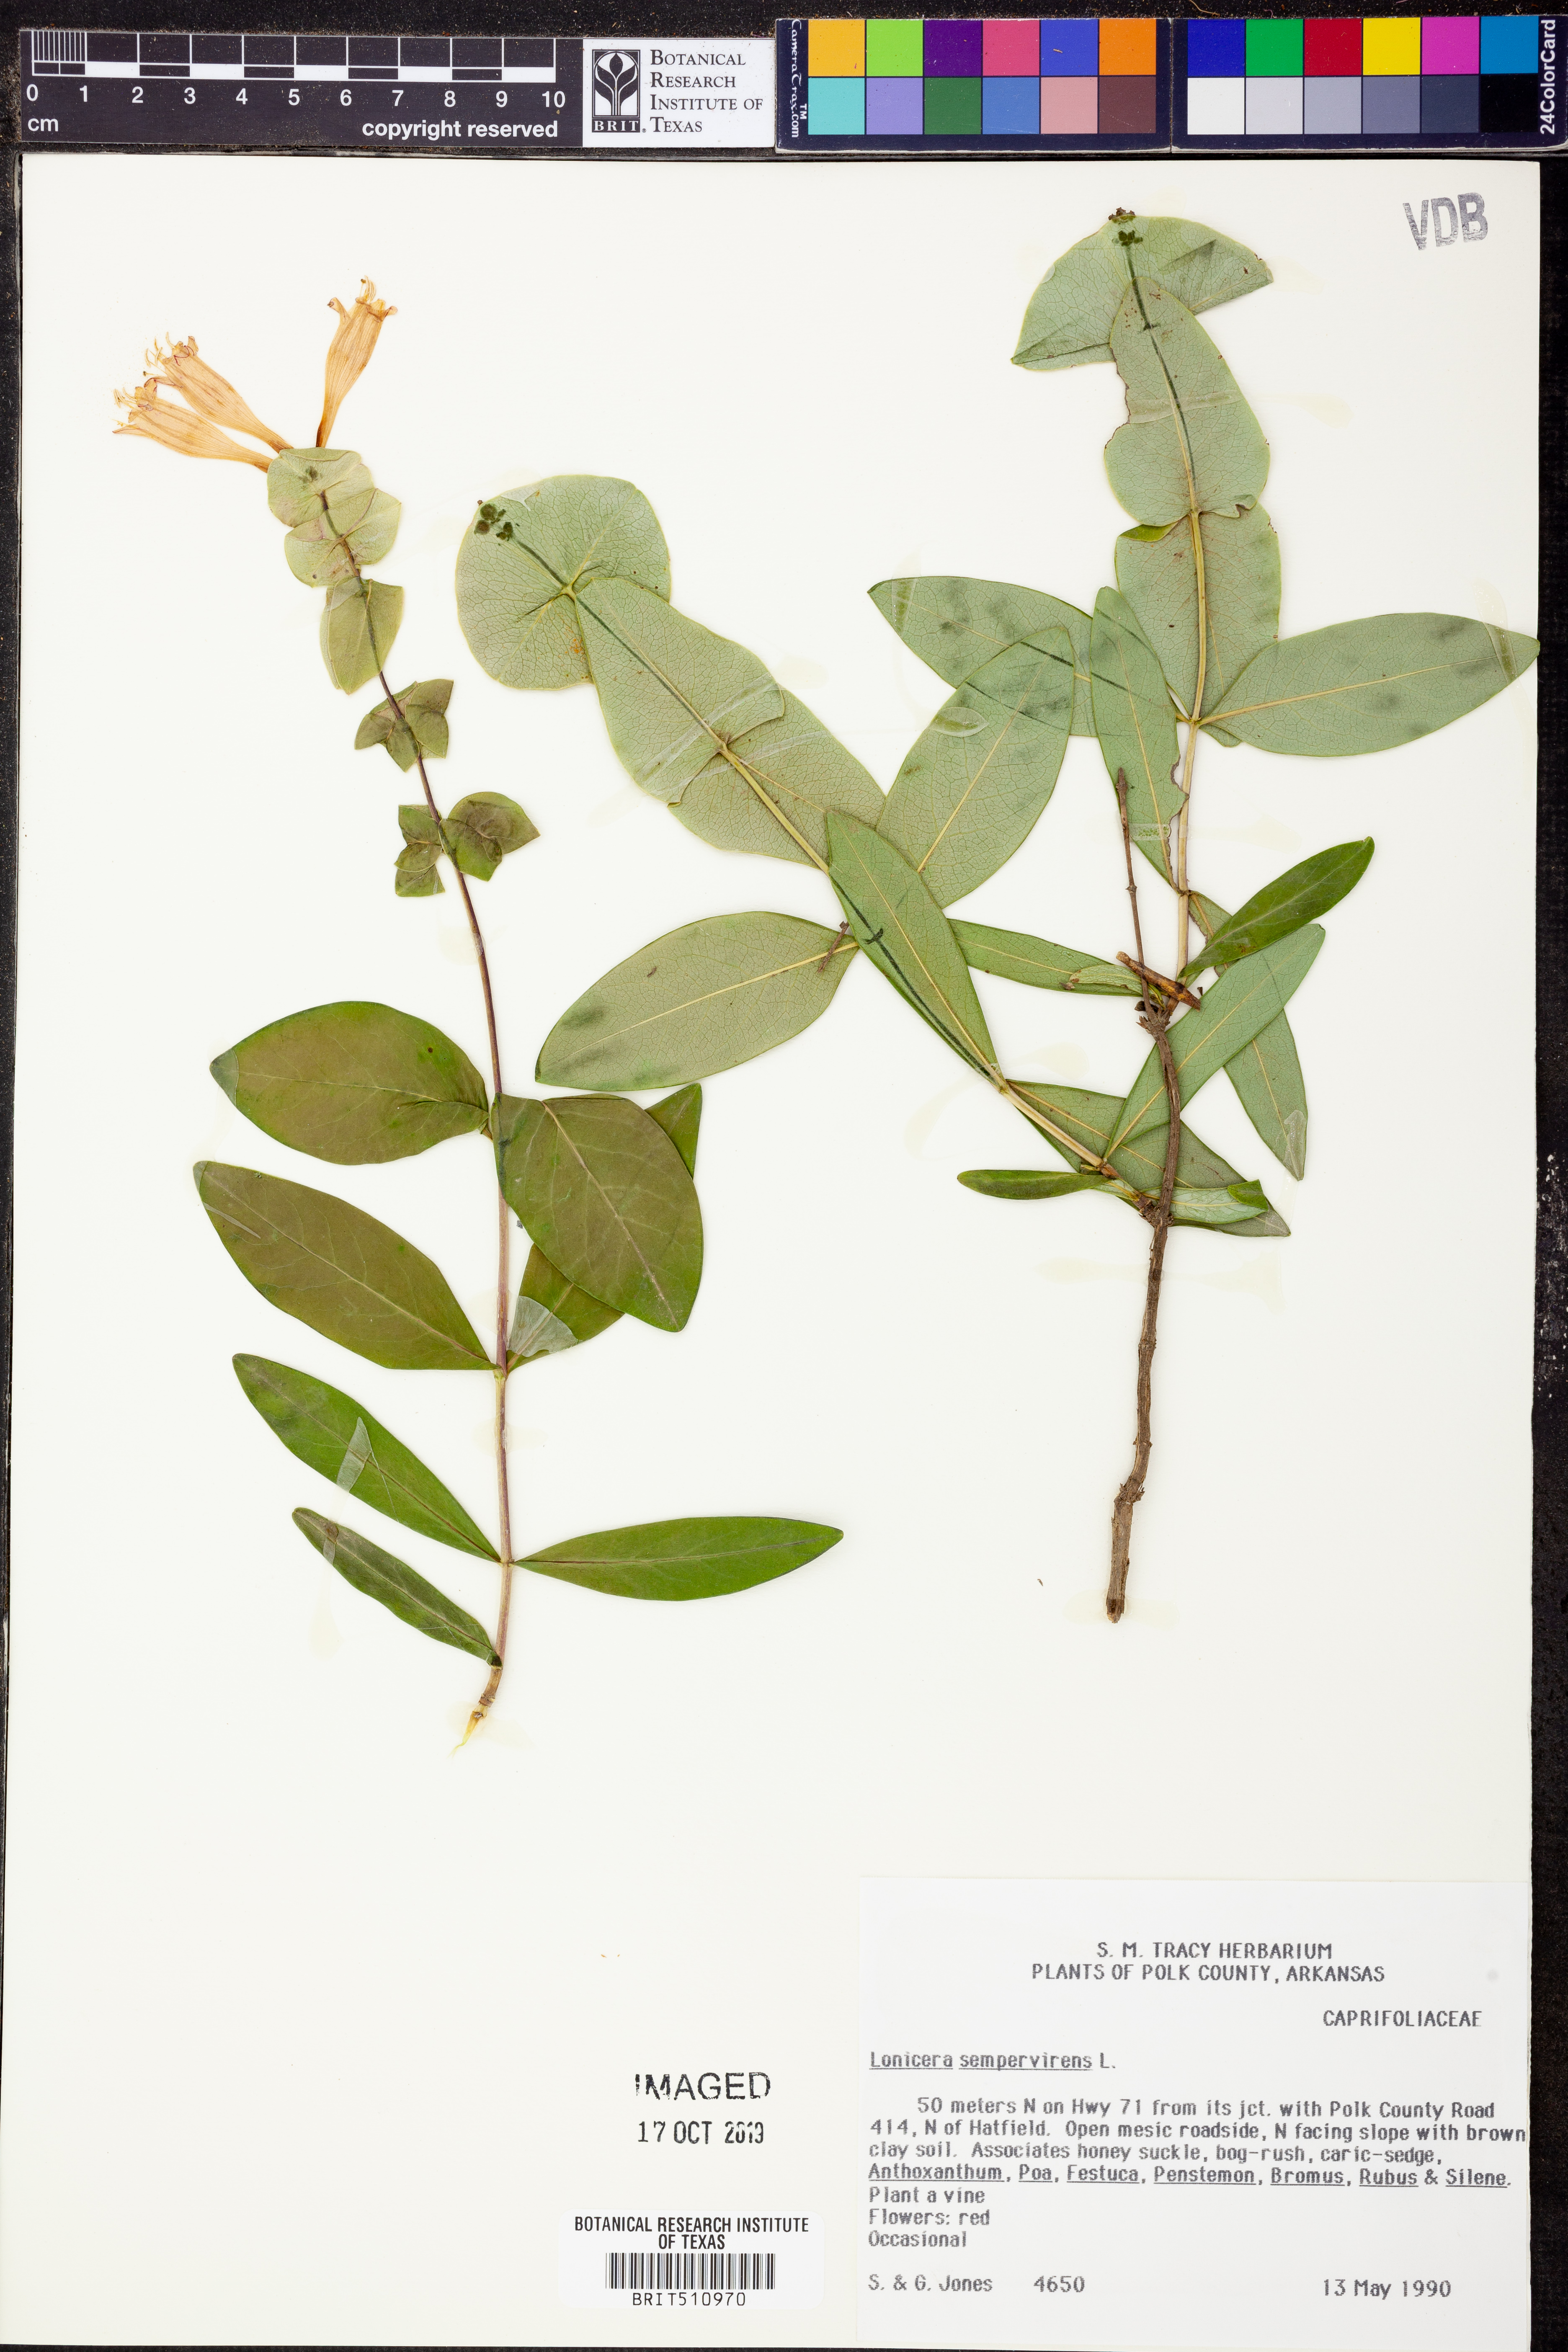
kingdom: Plantae
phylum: Tracheophyta
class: Magnoliopsida
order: Dipsacales
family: Caprifoliaceae
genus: Lonicera
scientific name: Lonicera sempervirens
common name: Coral honeysuckle
